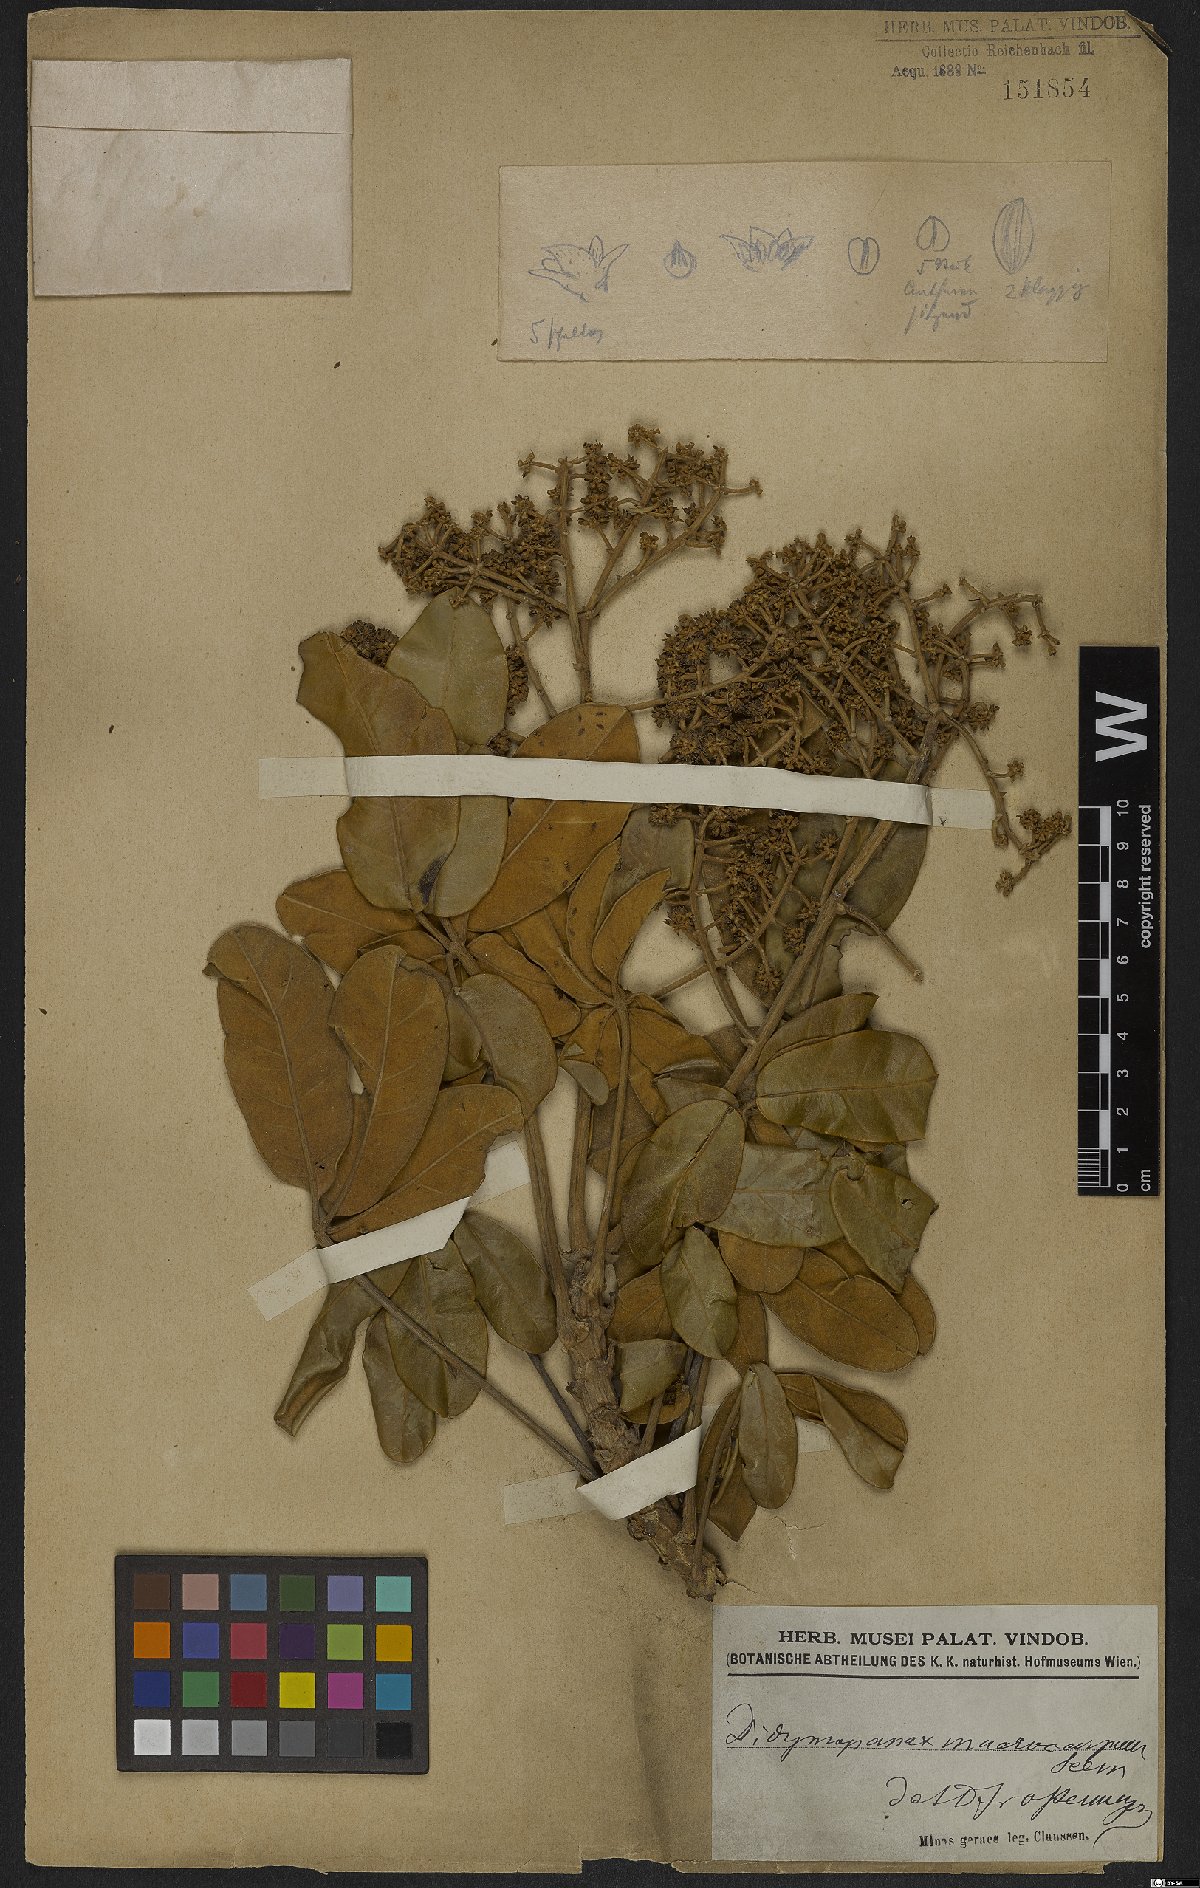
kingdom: Plantae
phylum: Tracheophyta
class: Magnoliopsida
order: Apiales
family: Araliaceae
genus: Didymopanax
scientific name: Didymopanax macrocarpus
